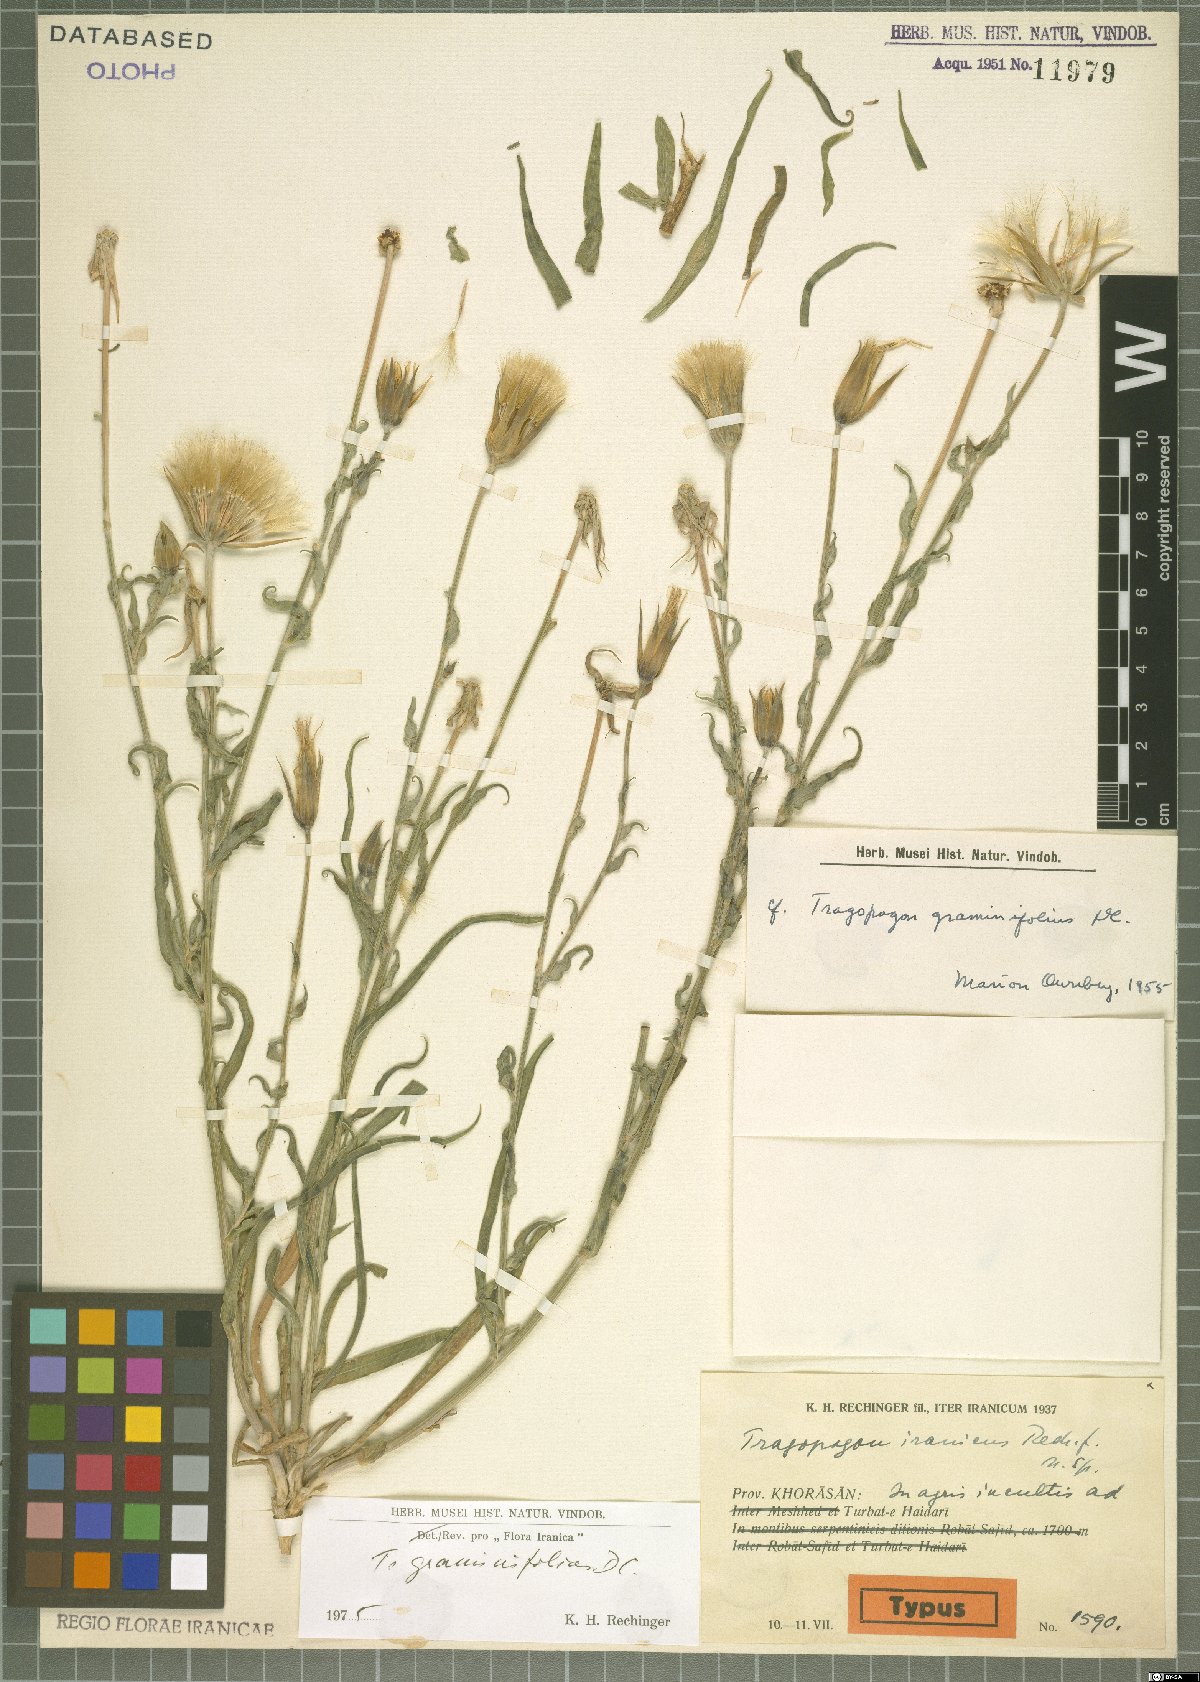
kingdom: Plantae
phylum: Tracheophyta
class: Magnoliopsida
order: Asterales
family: Asteraceae
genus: Tragopogon
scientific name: Tragopogon graminifolius
